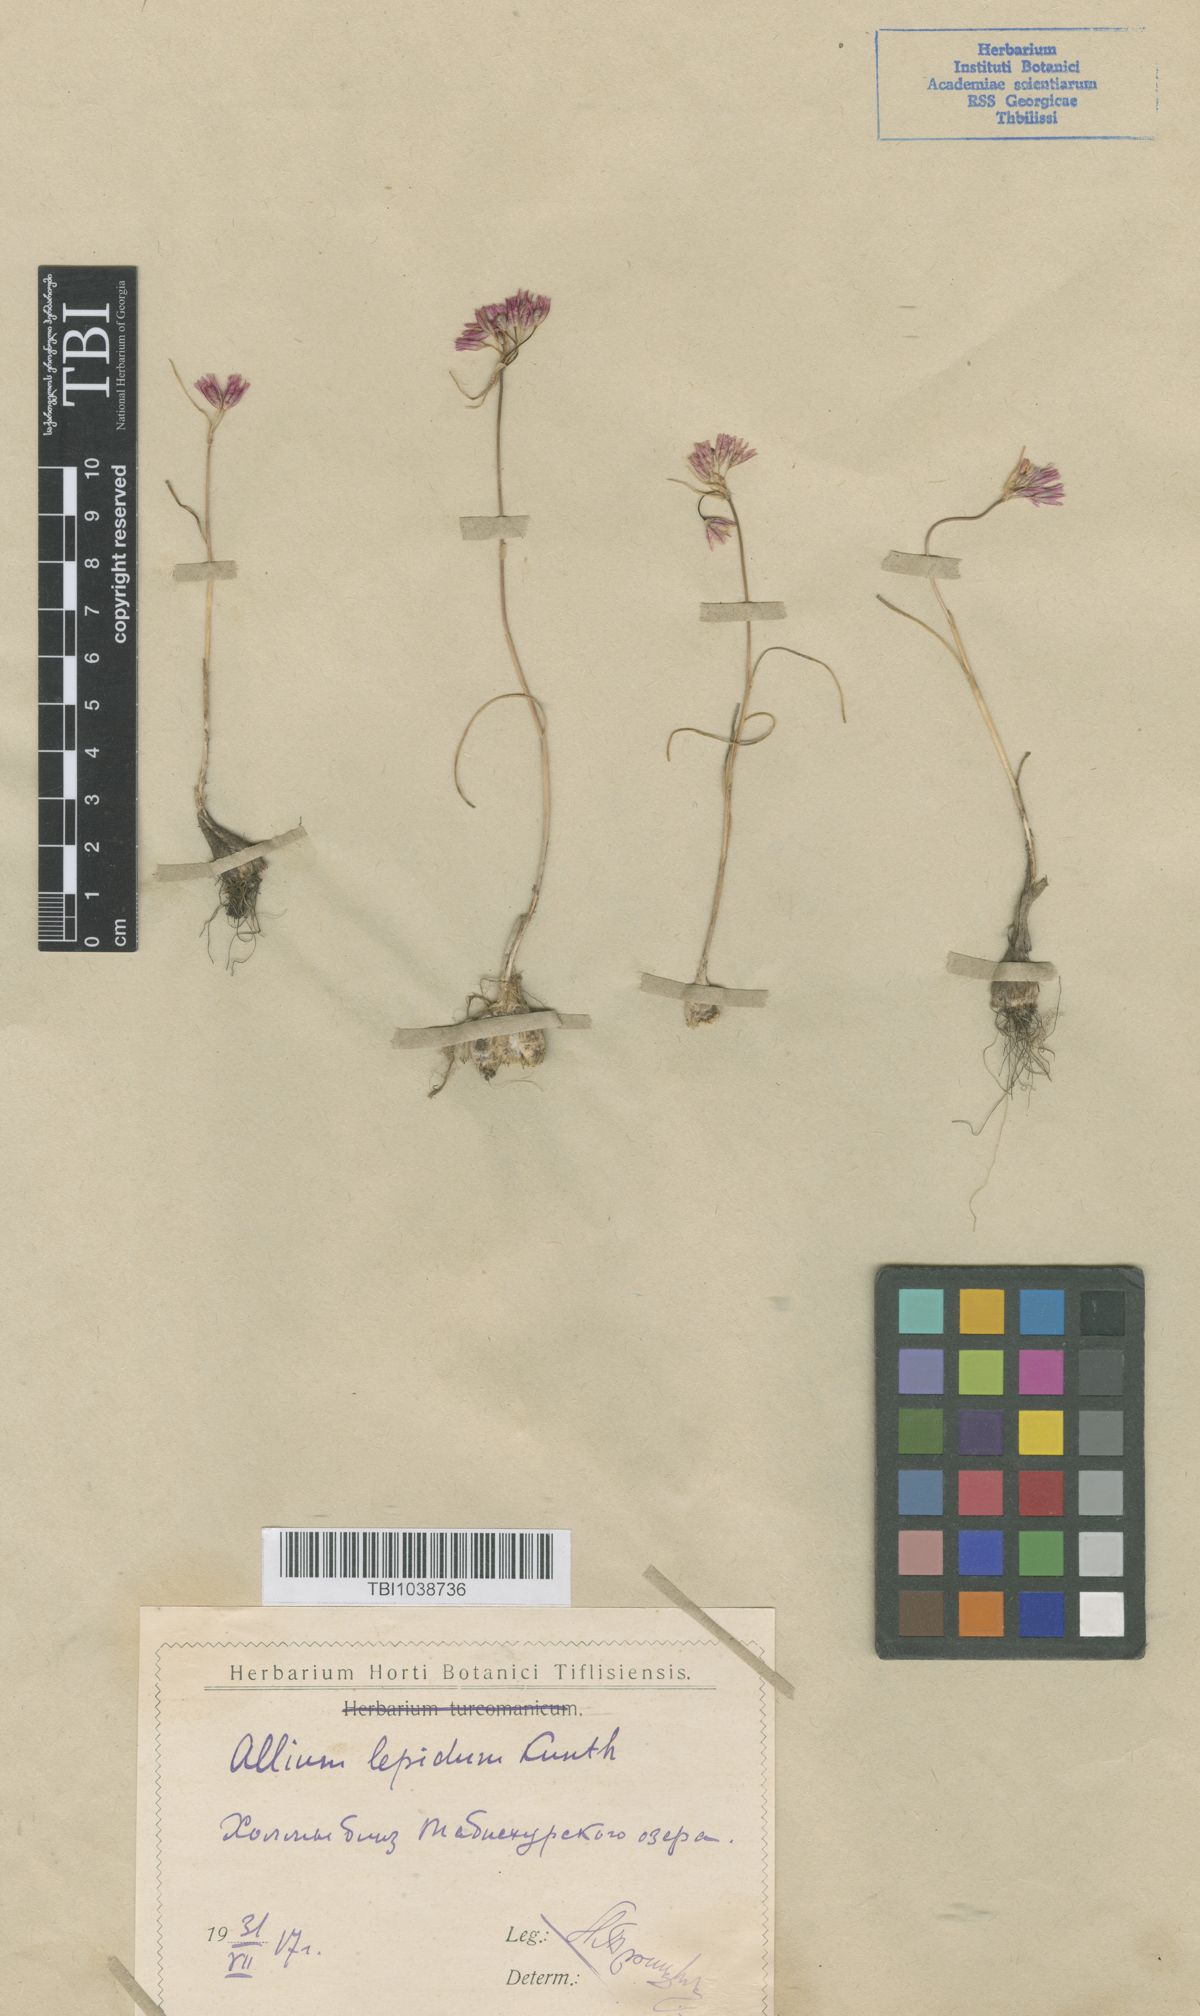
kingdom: Plantae
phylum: Tracheophyta
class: Liliopsida
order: Asparagales
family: Amaryllidaceae
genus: Allium
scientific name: Allium kunthianum
